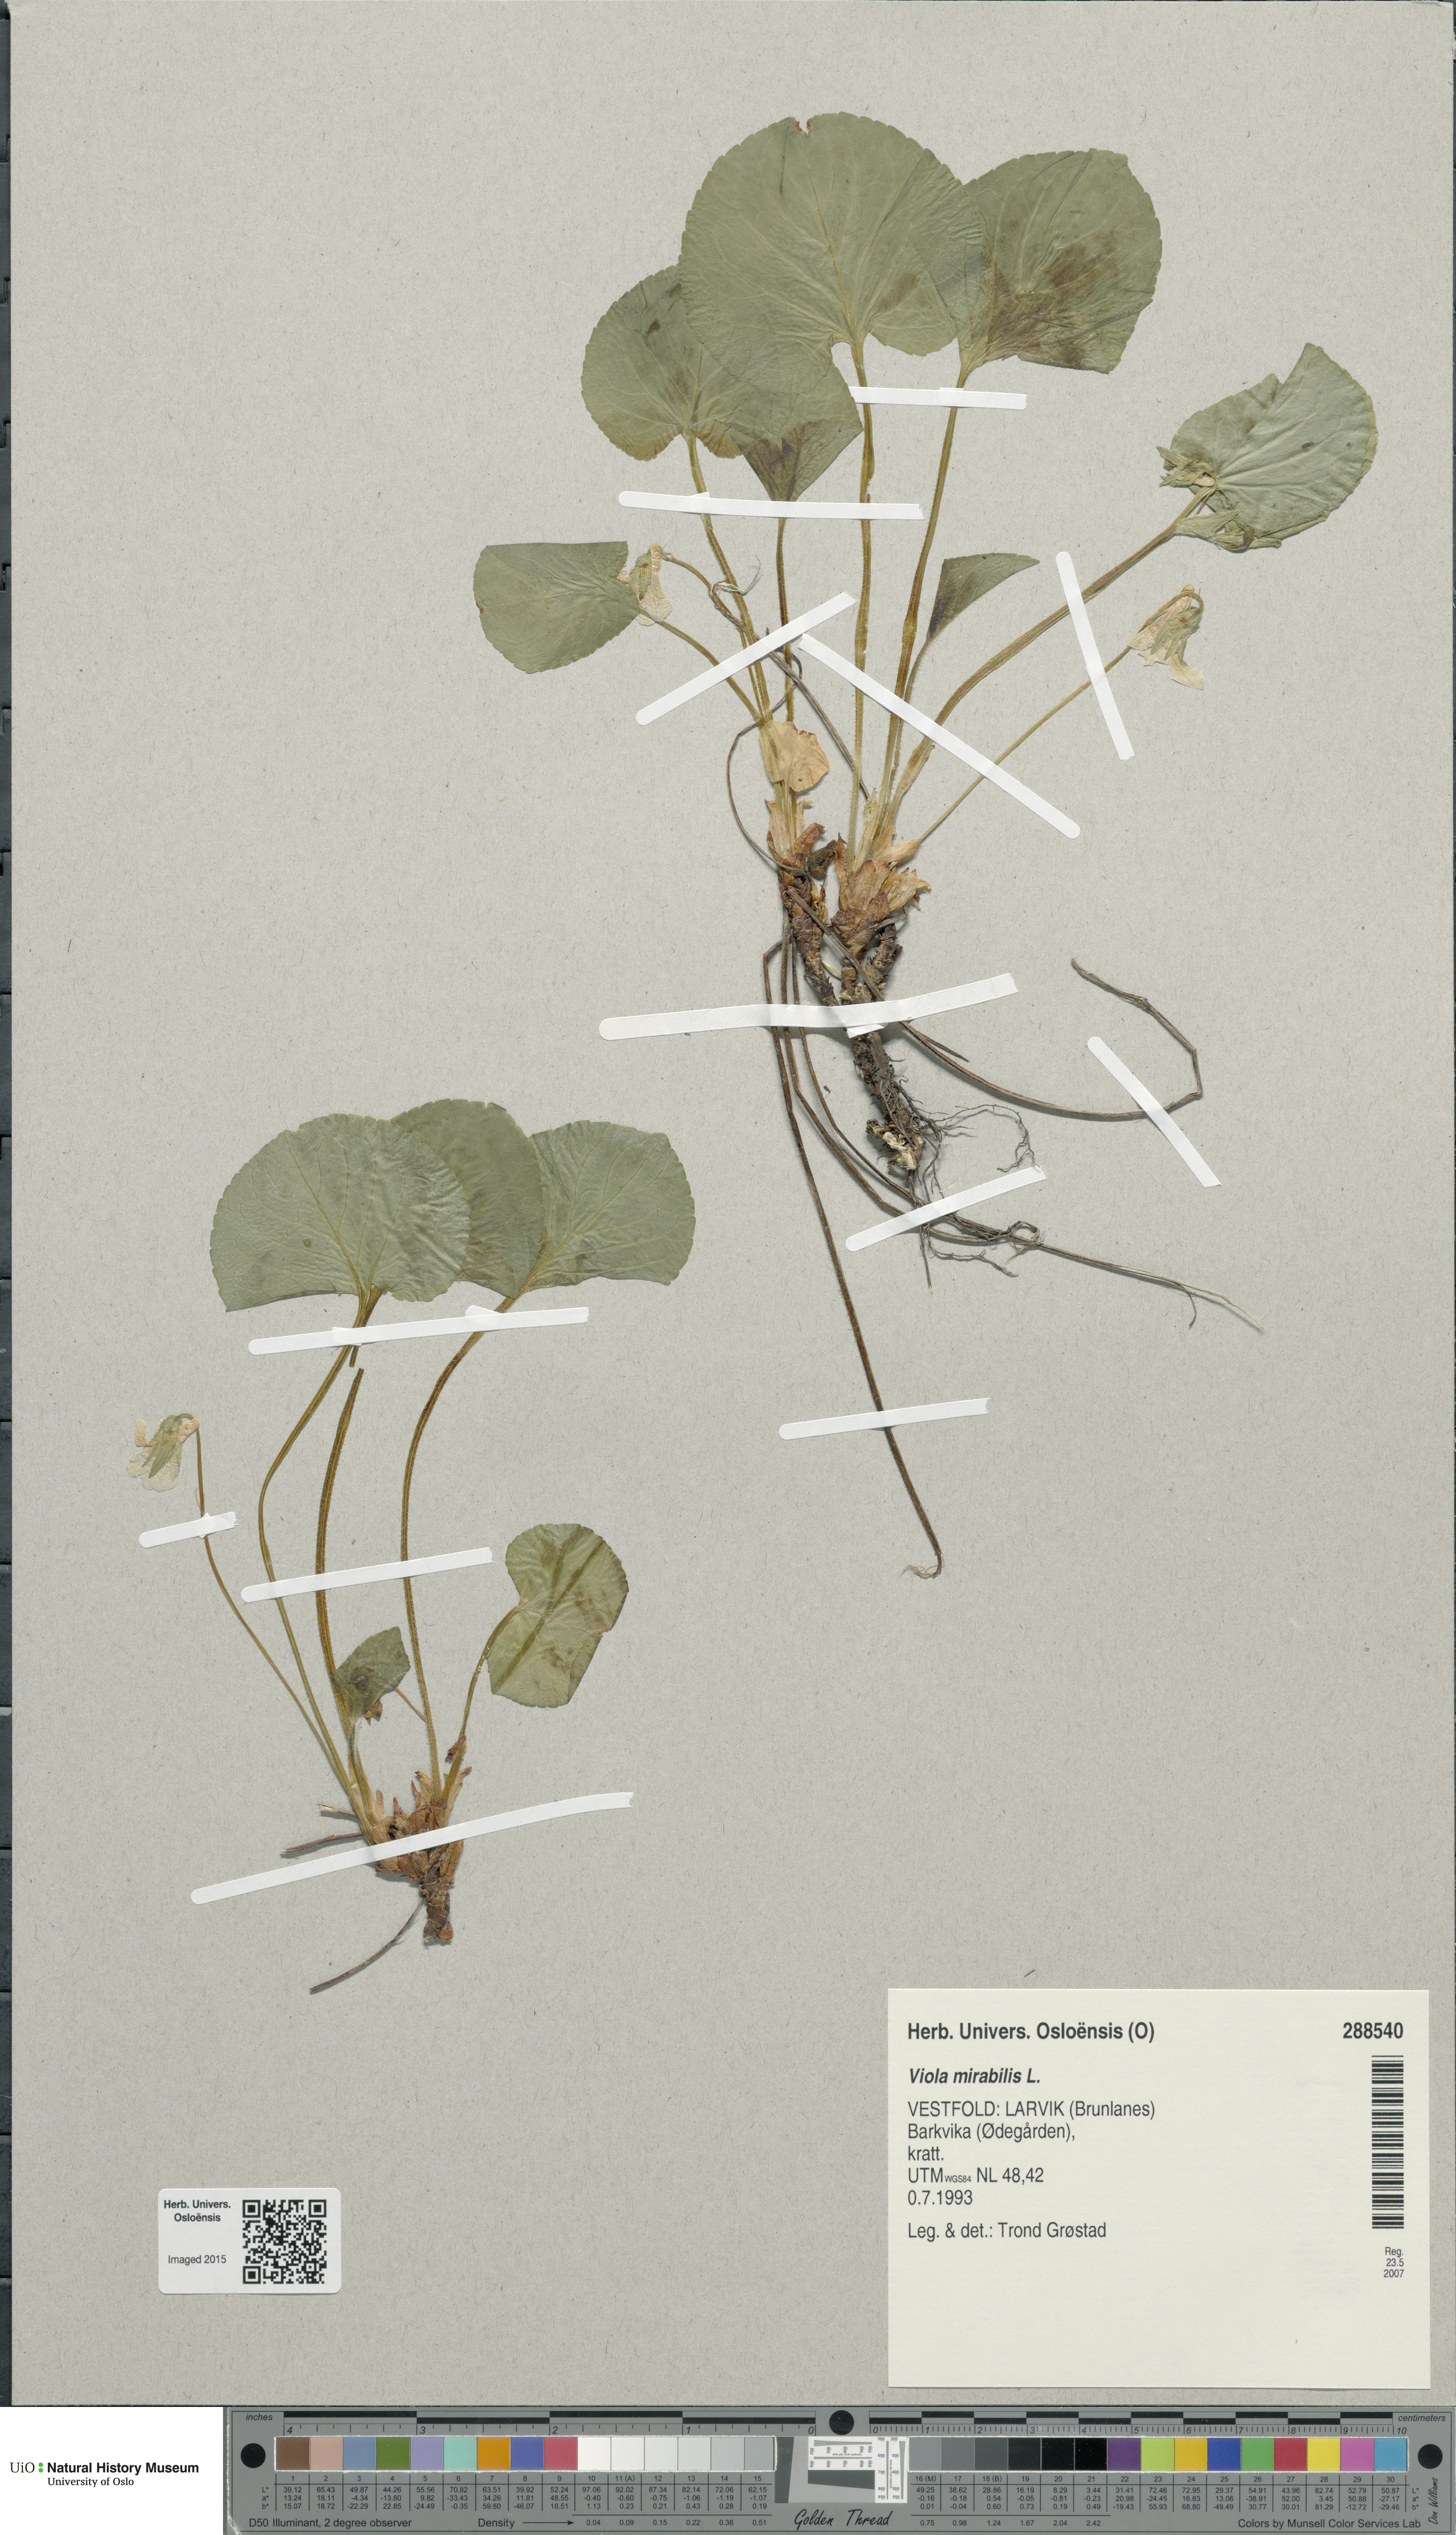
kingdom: Plantae
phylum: Tracheophyta
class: Magnoliopsida
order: Malpighiales
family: Violaceae
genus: Viola
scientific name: Viola mirabilis
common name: Wonder violet
